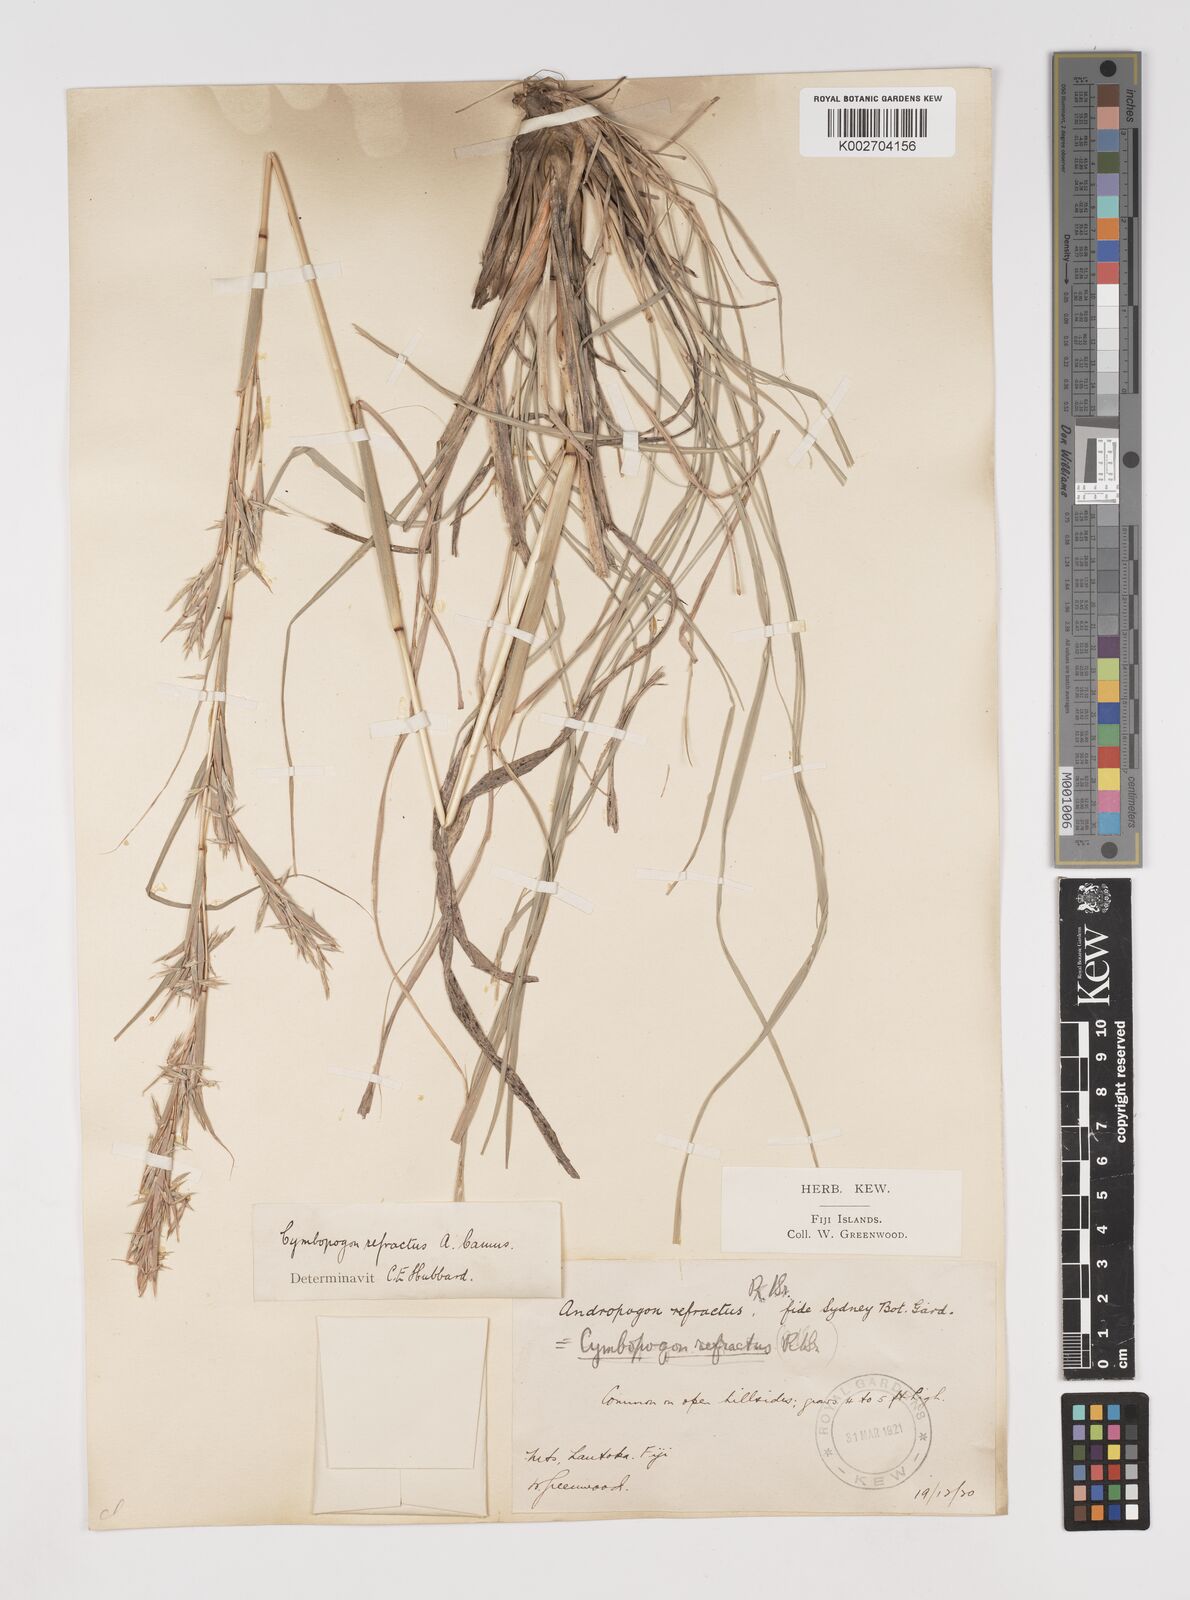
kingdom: Plantae
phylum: Tracheophyta
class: Liliopsida
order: Poales
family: Poaceae
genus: Cymbopogon
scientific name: Cymbopogon refractus
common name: Barbwire grass
